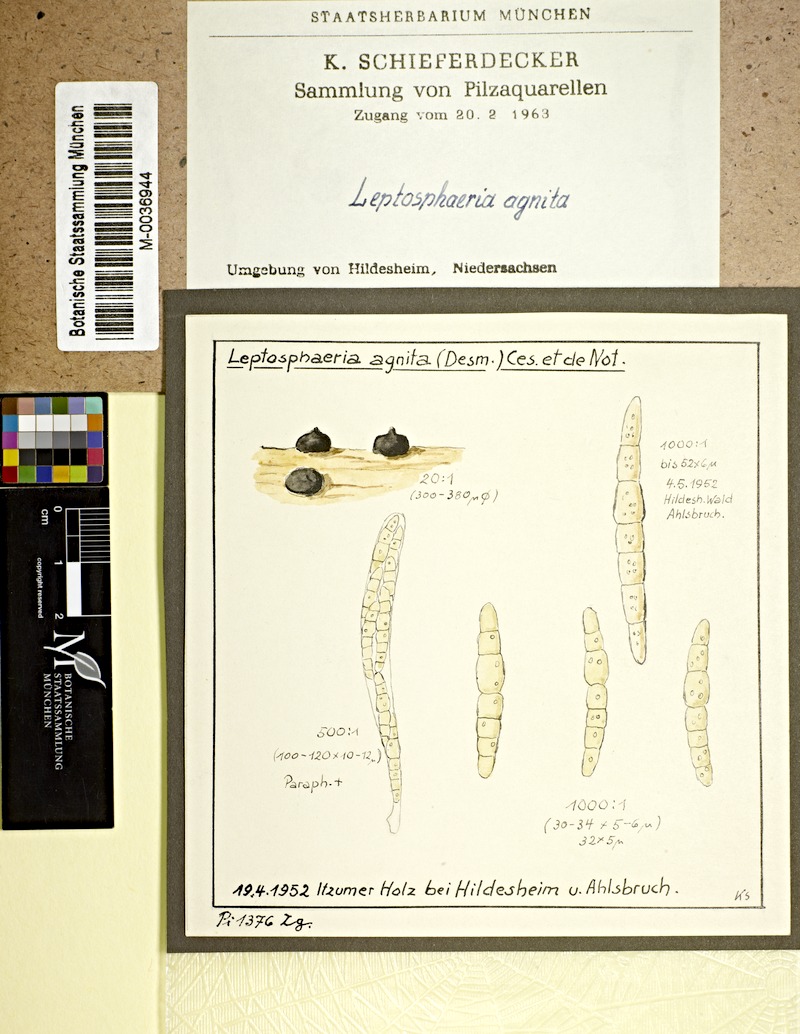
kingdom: Fungi
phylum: Ascomycota
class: Dothideomycetes
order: Pleosporales
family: Leptosphaeriaceae
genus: Plenodomus
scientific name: Plenodomus agnitus
